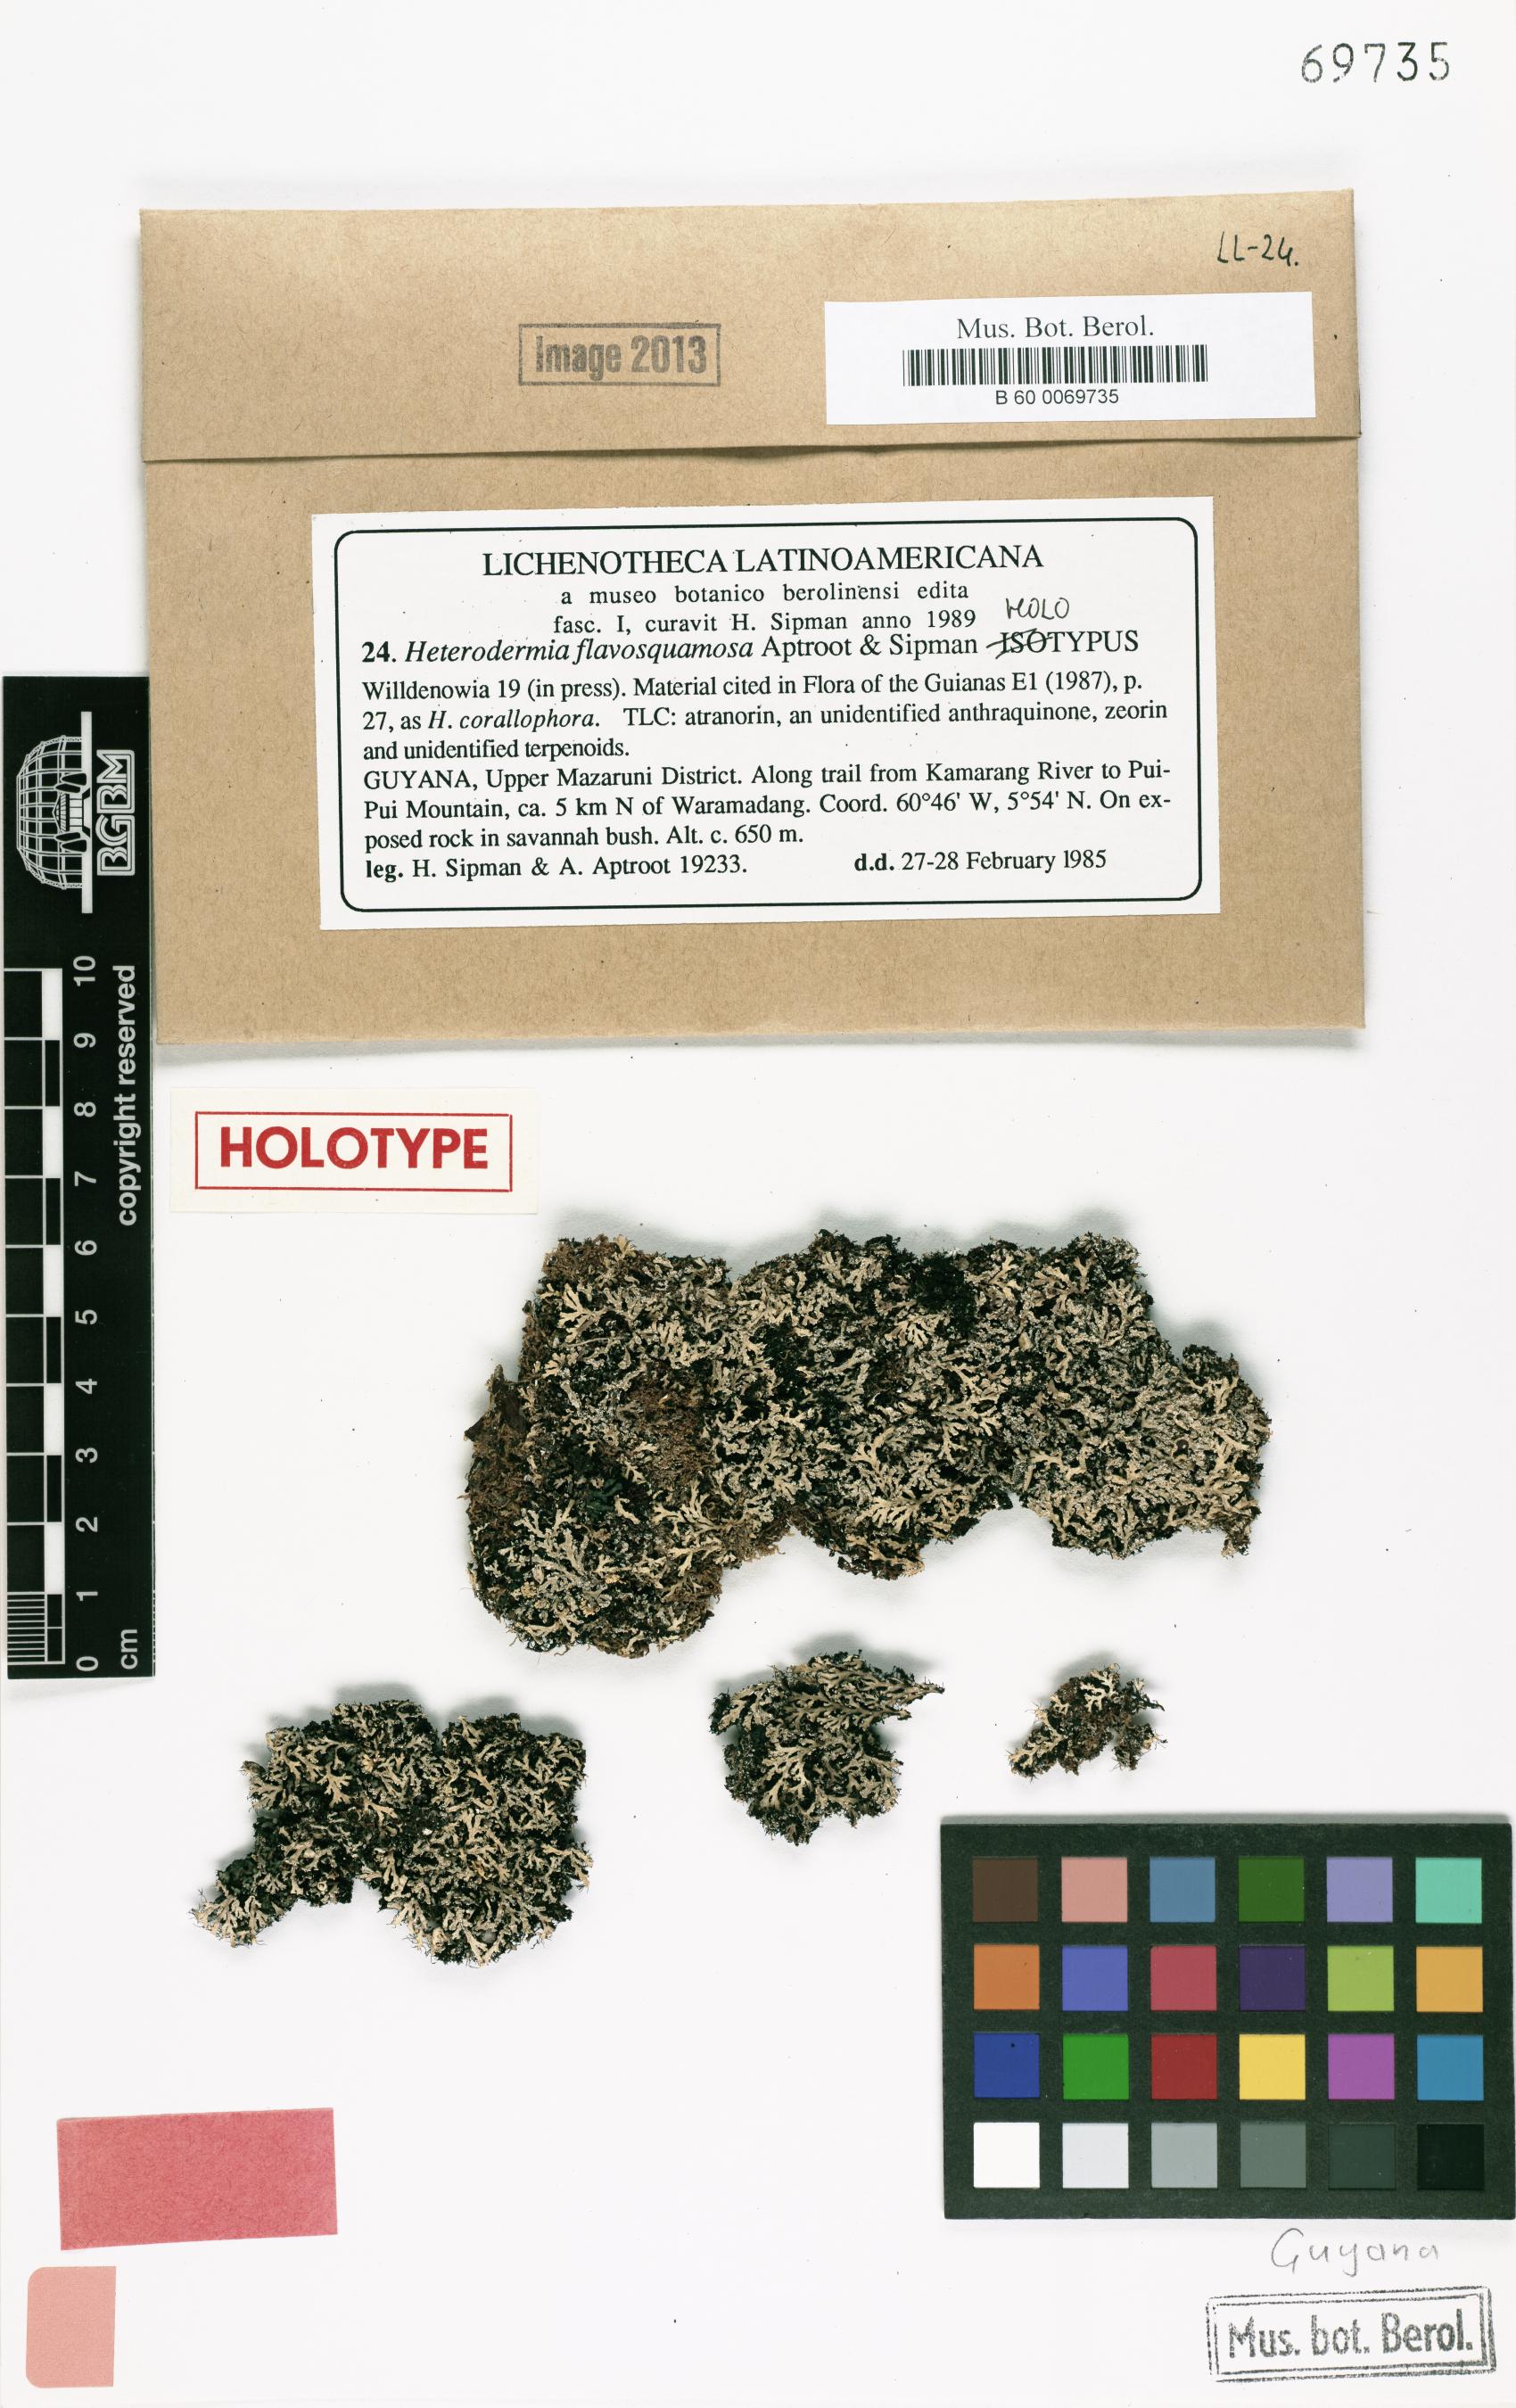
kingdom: Fungi
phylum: Ascomycota
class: Lecanoromycetes
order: Caliciales
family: Physciaceae
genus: Heterodermia
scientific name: Heterodermia flavosquamosa
